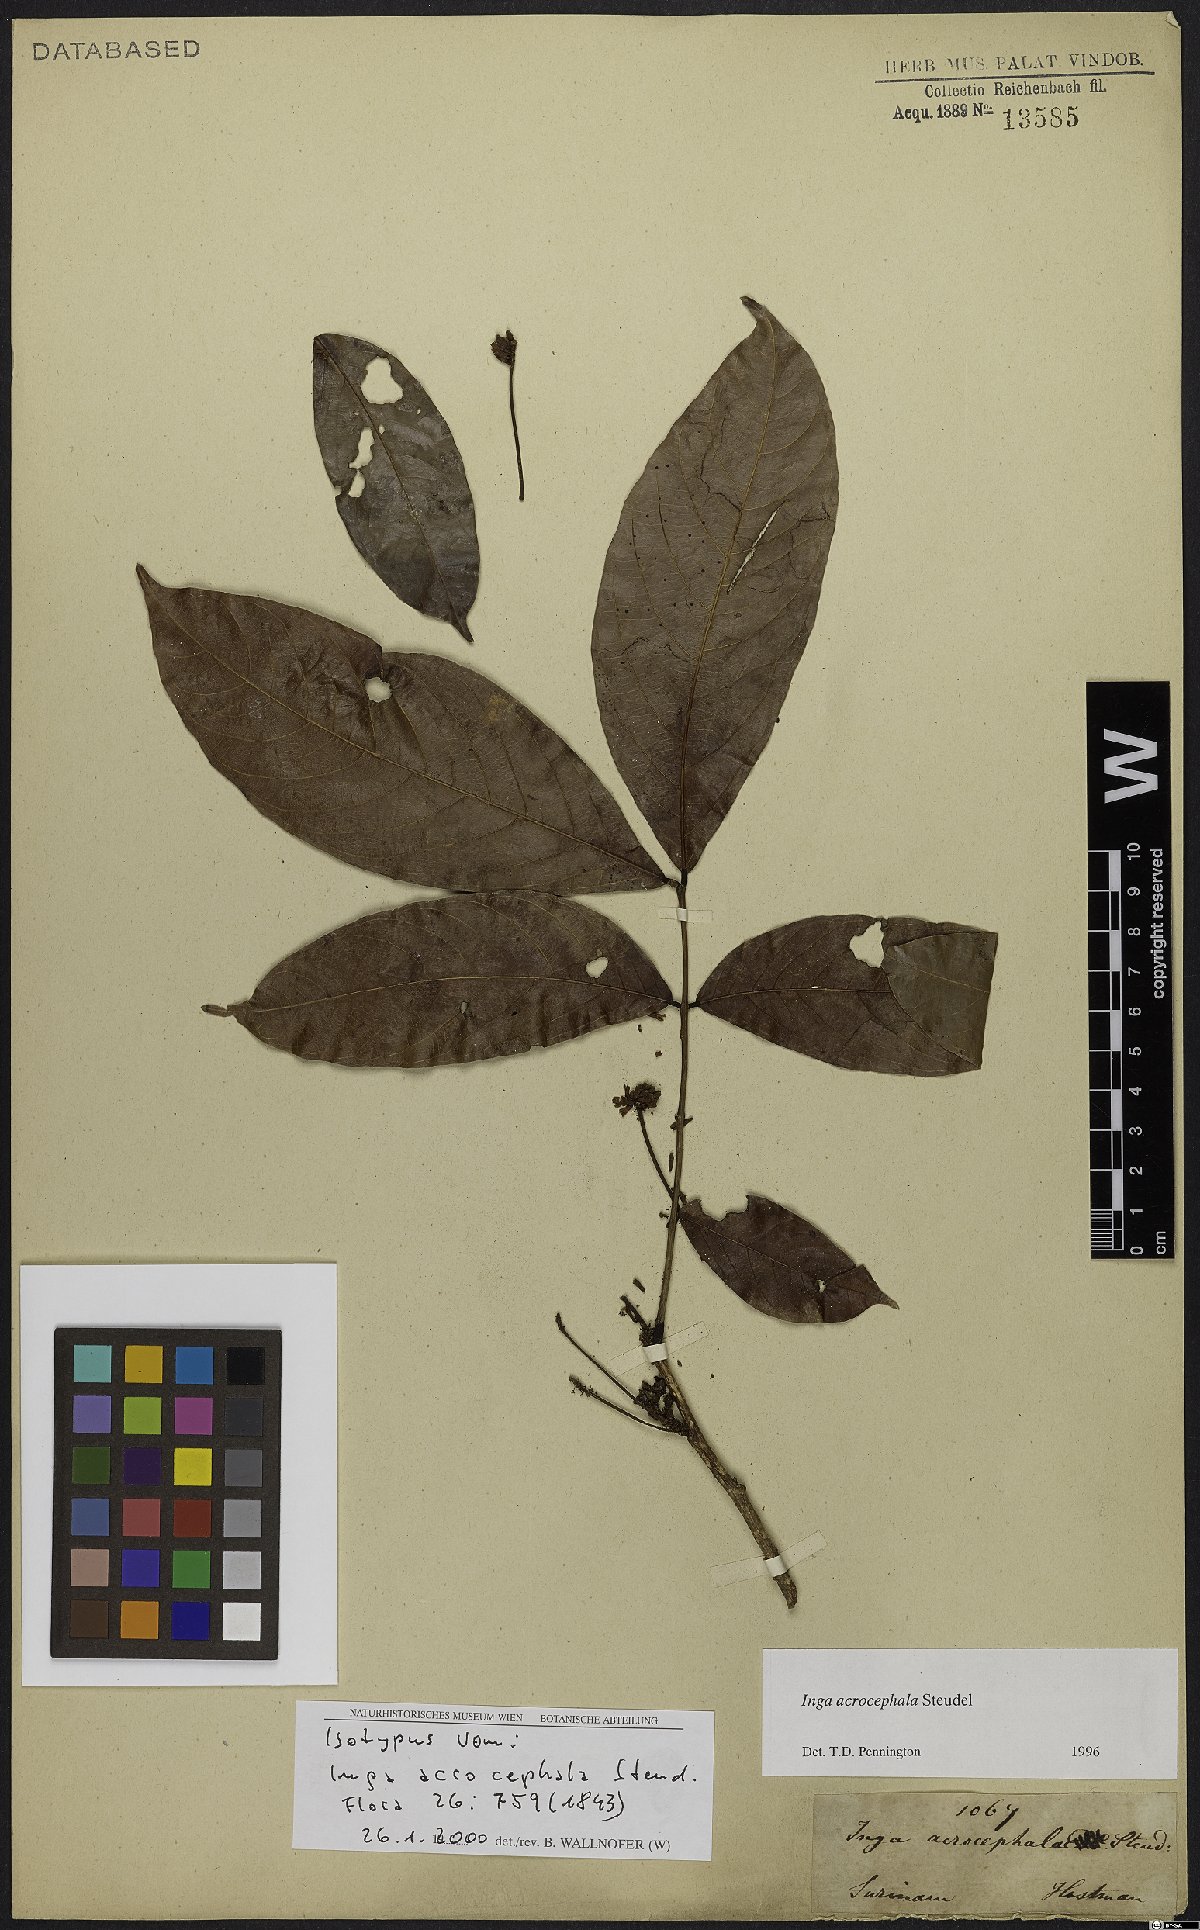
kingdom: Plantae
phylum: Tracheophyta
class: Magnoliopsida
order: Fabales
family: Fabaceae
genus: Inga
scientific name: Inga acrocephala
